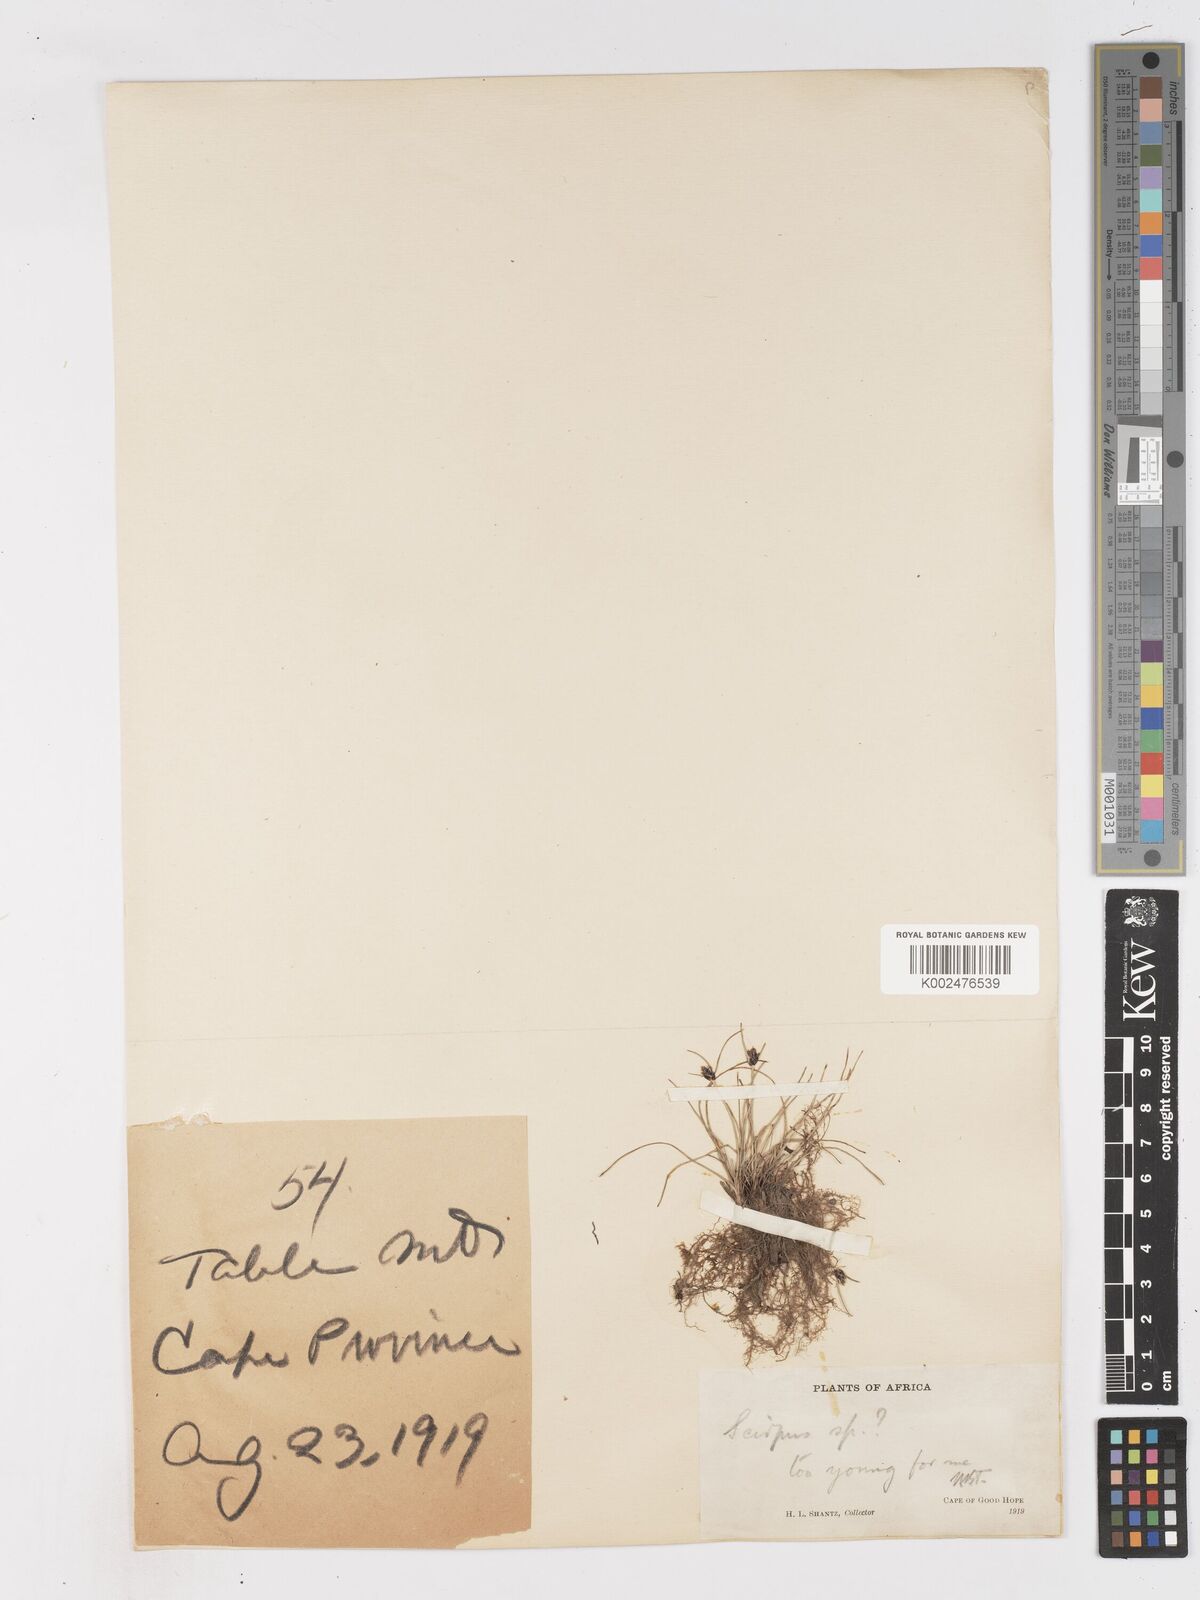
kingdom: Plantae
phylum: Tracheophyta
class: Liliopsida
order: Poales
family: Cyperaceae
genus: Ficinia
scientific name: Ficinia
